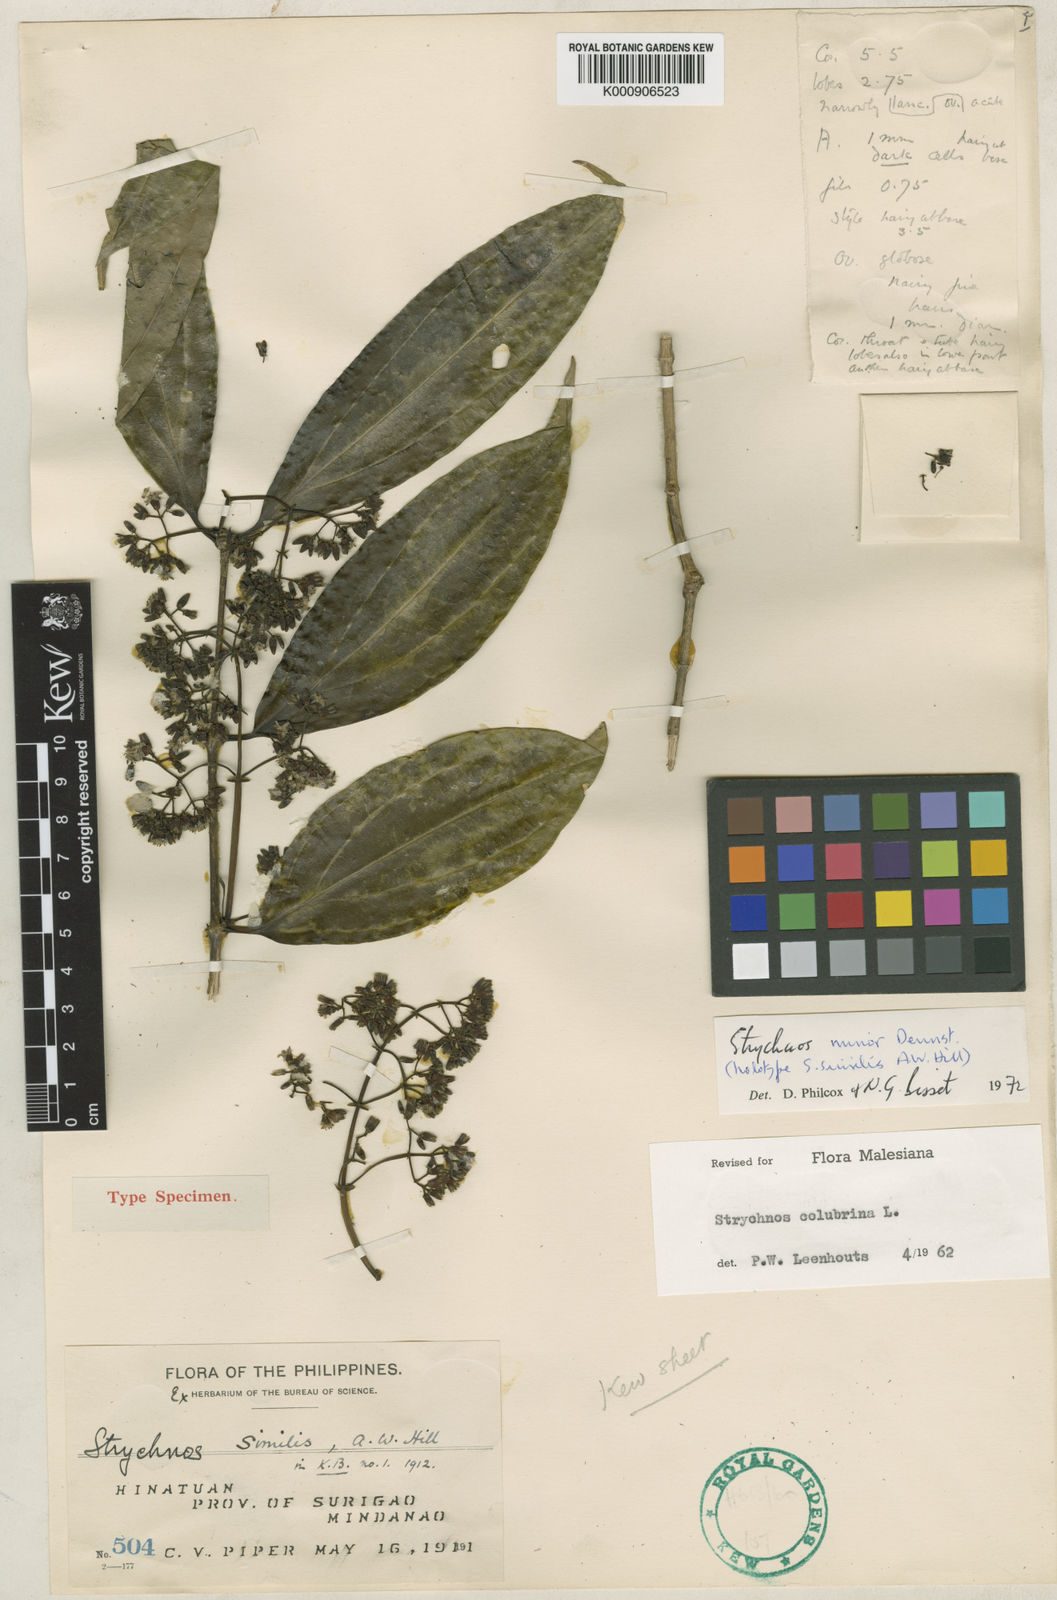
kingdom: Plantae
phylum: Tracheophyta
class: Magnoliopsida
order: Gentianales
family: Loganiaceae
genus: Strychnos
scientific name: Strychnos minor
